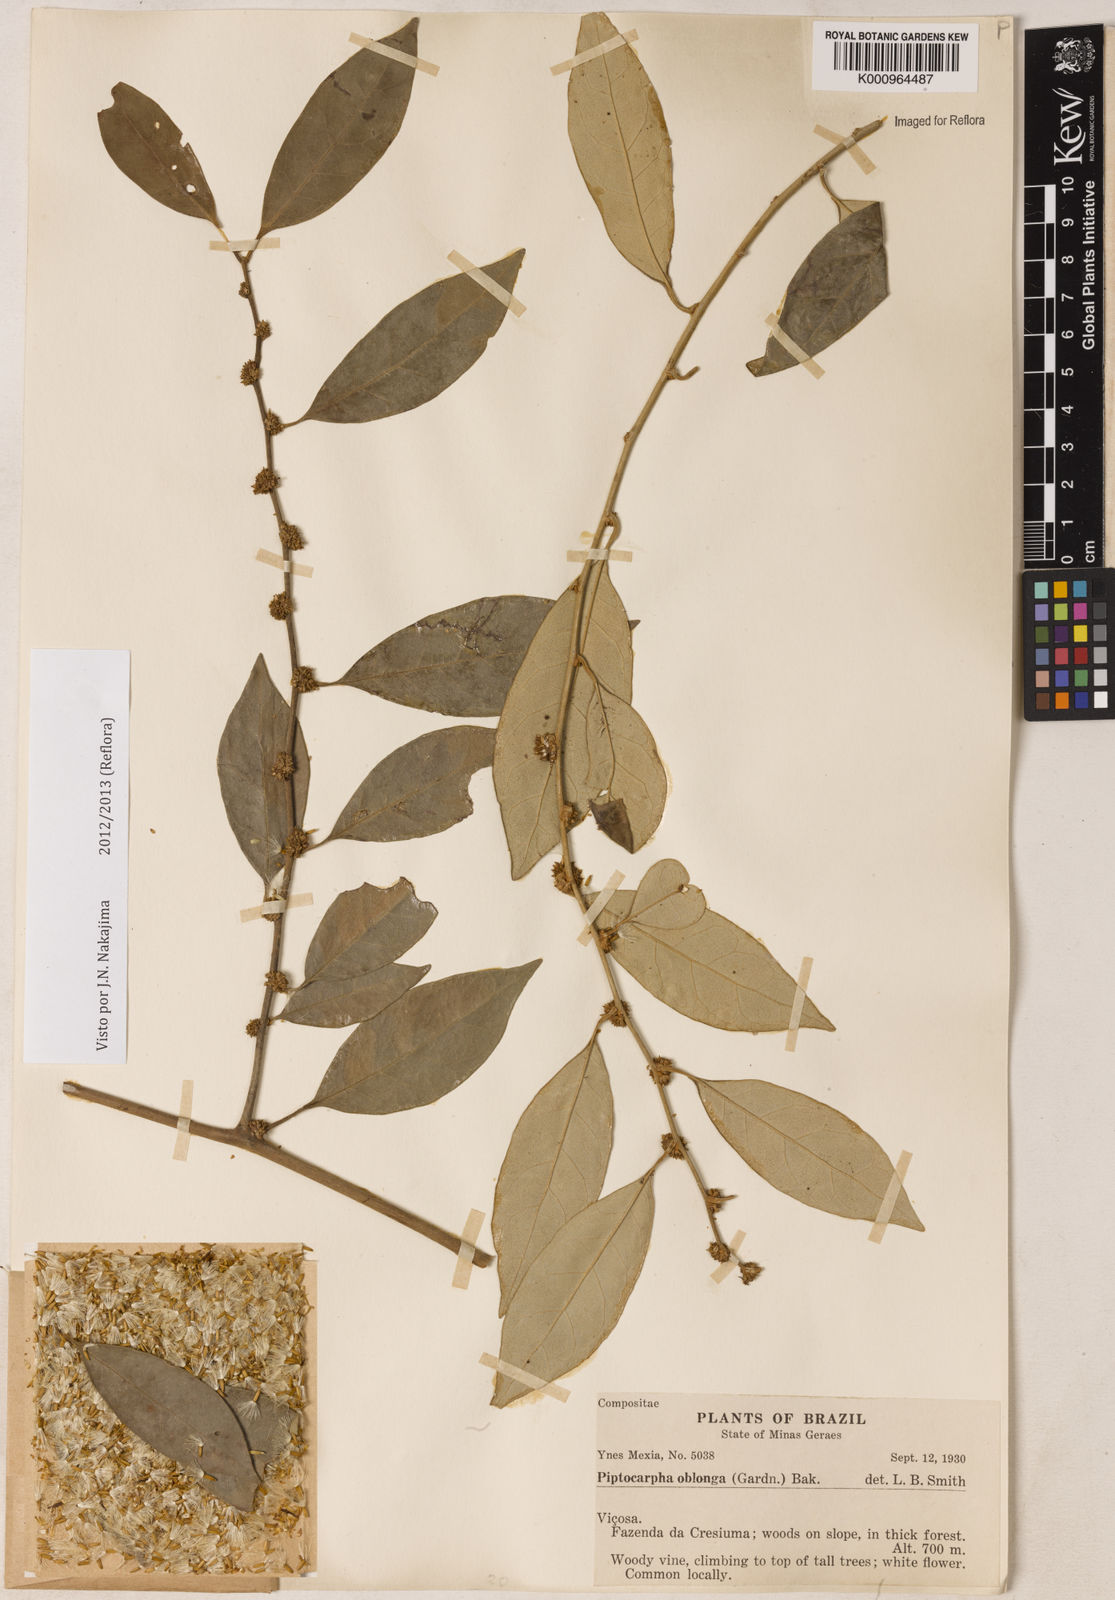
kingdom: Plantae
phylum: Tracheophyta
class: Magnoliopsida
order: Asterales
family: Asteraceae
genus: Piptocarpha
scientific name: Piptocarpha oblonga
